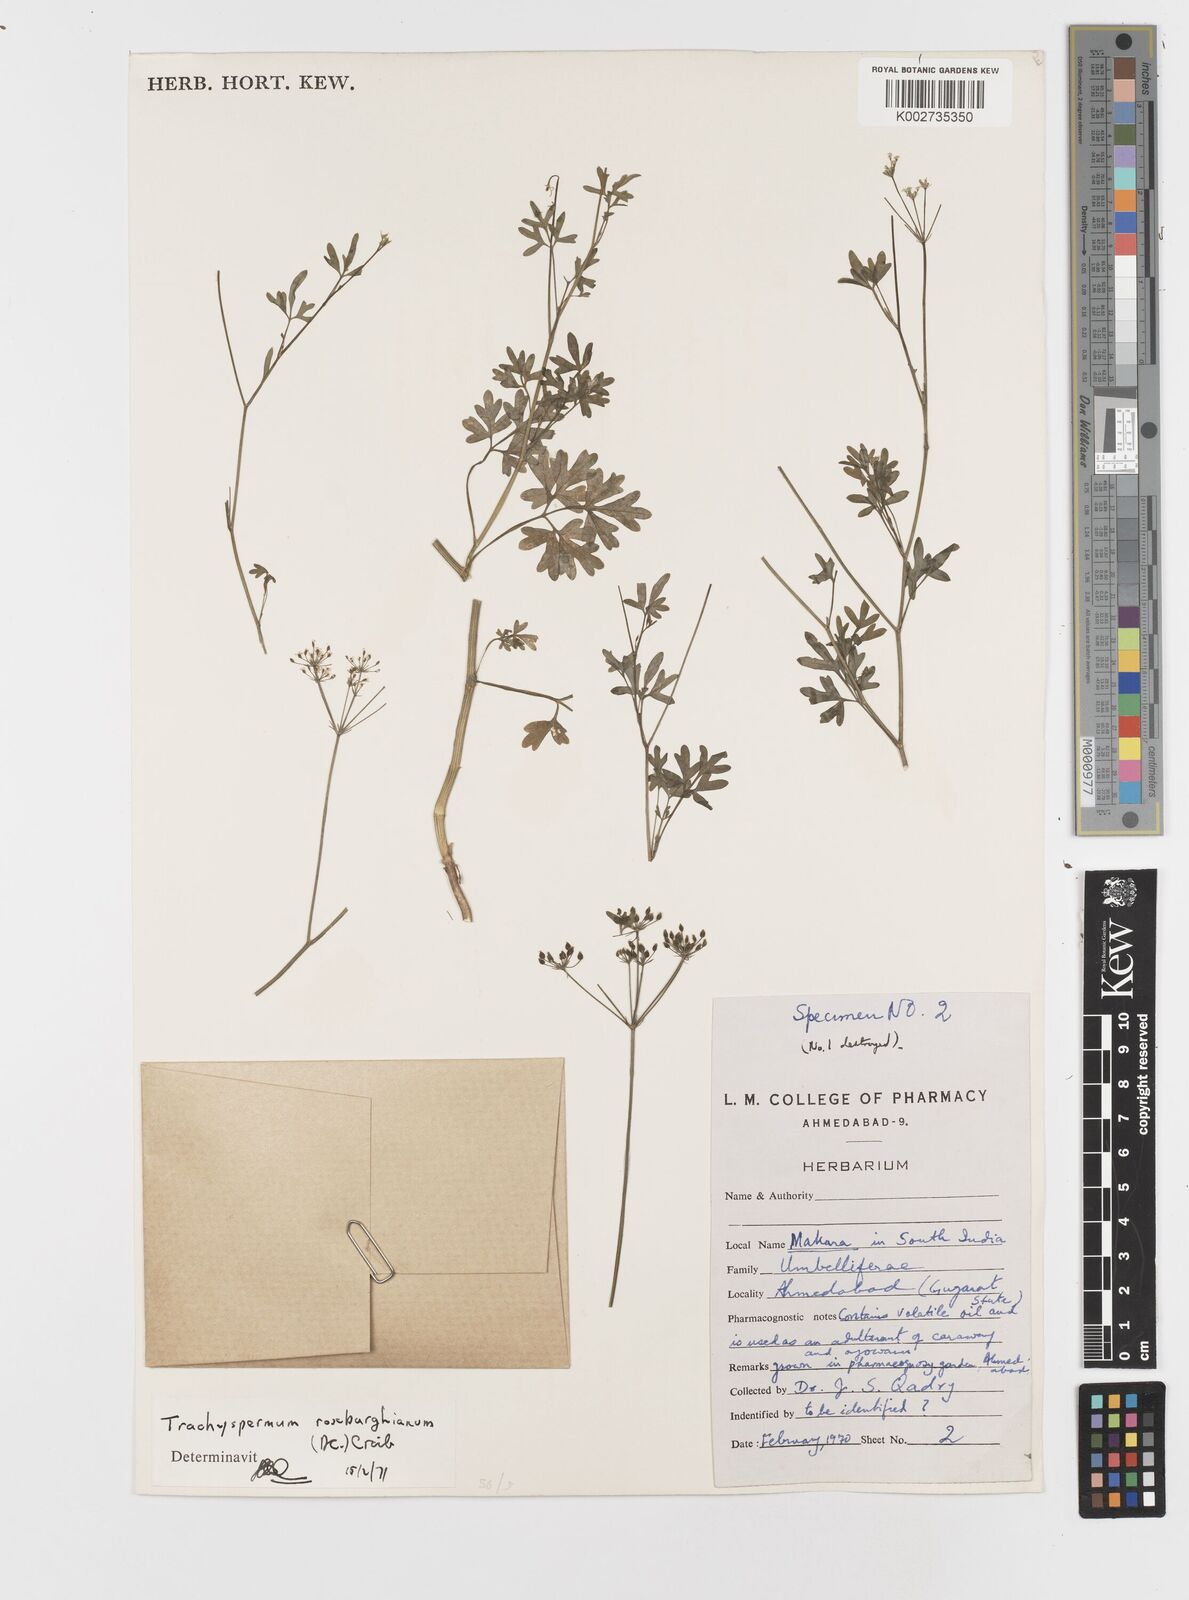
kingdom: Plantae
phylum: Tracheophyta
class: Magnoliopsida
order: Apiales
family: Apiaceae
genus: Psammogeton
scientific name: Psammogeton involucratum
